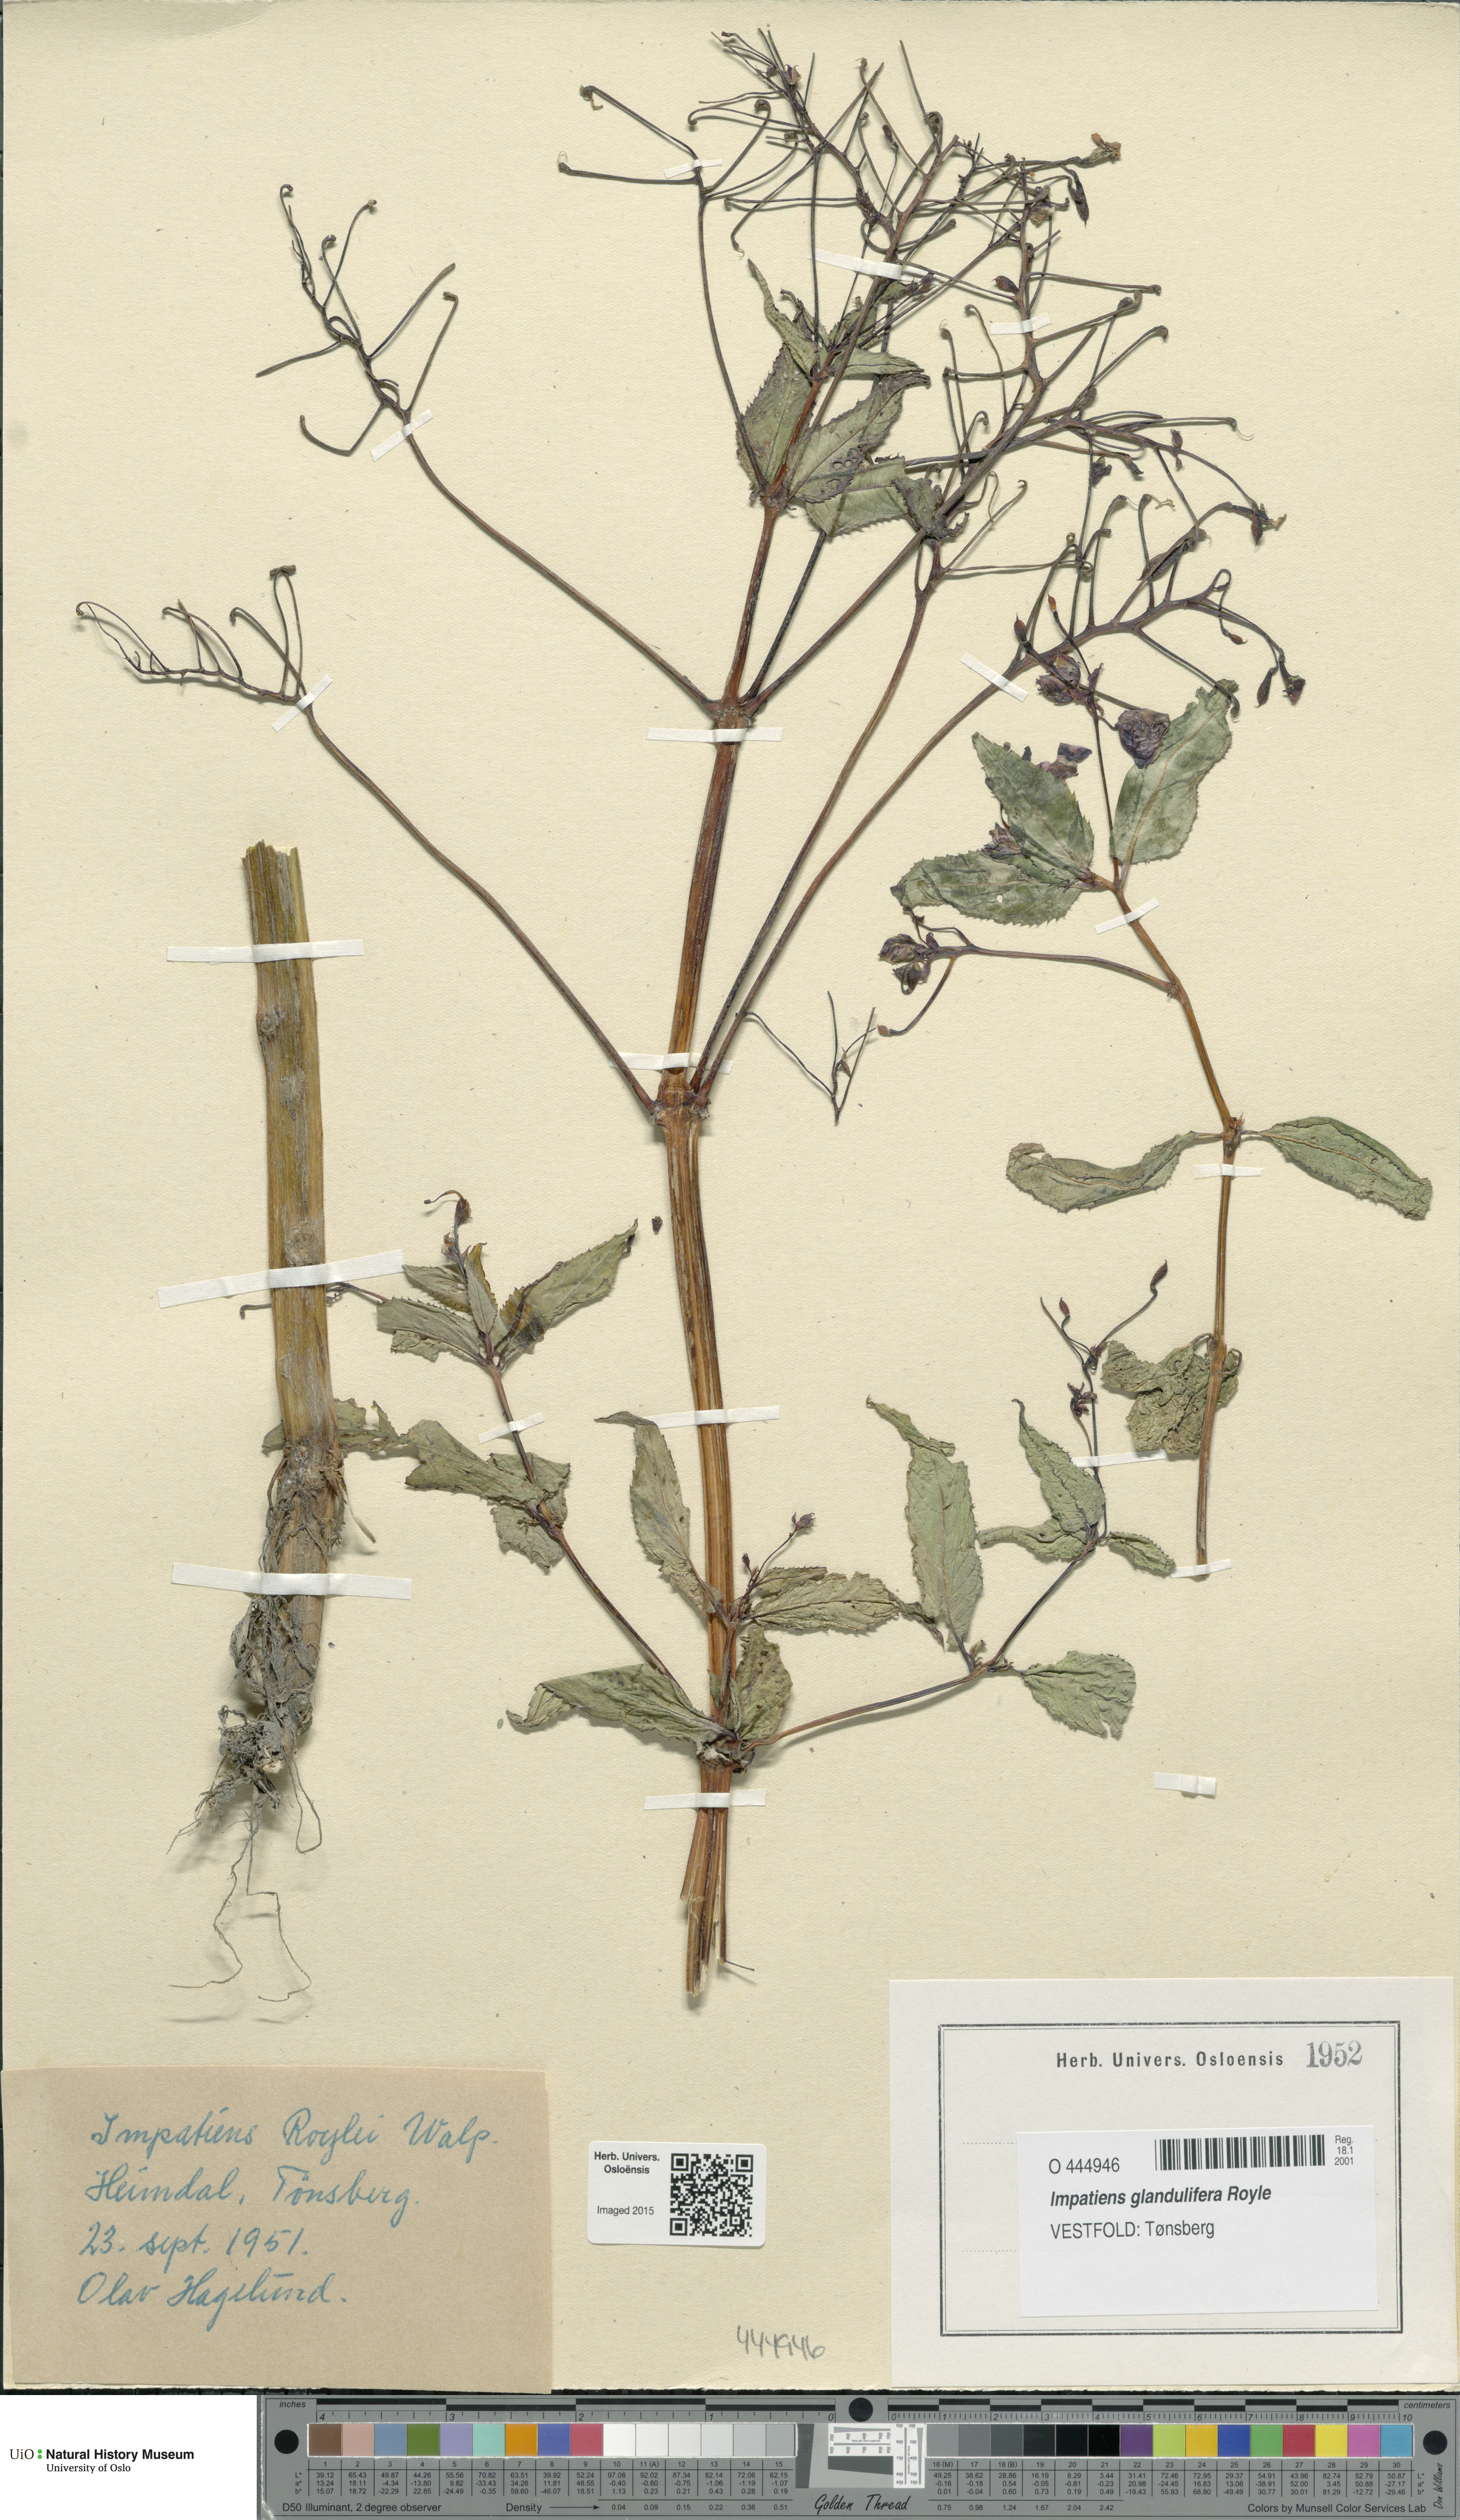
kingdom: Plantae
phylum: Tracheophyta
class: Magnoliopsida
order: Ericales
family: Balsaminaceae
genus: Impatiens
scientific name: Impatiens glandulifera
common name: Himalayan balsam
